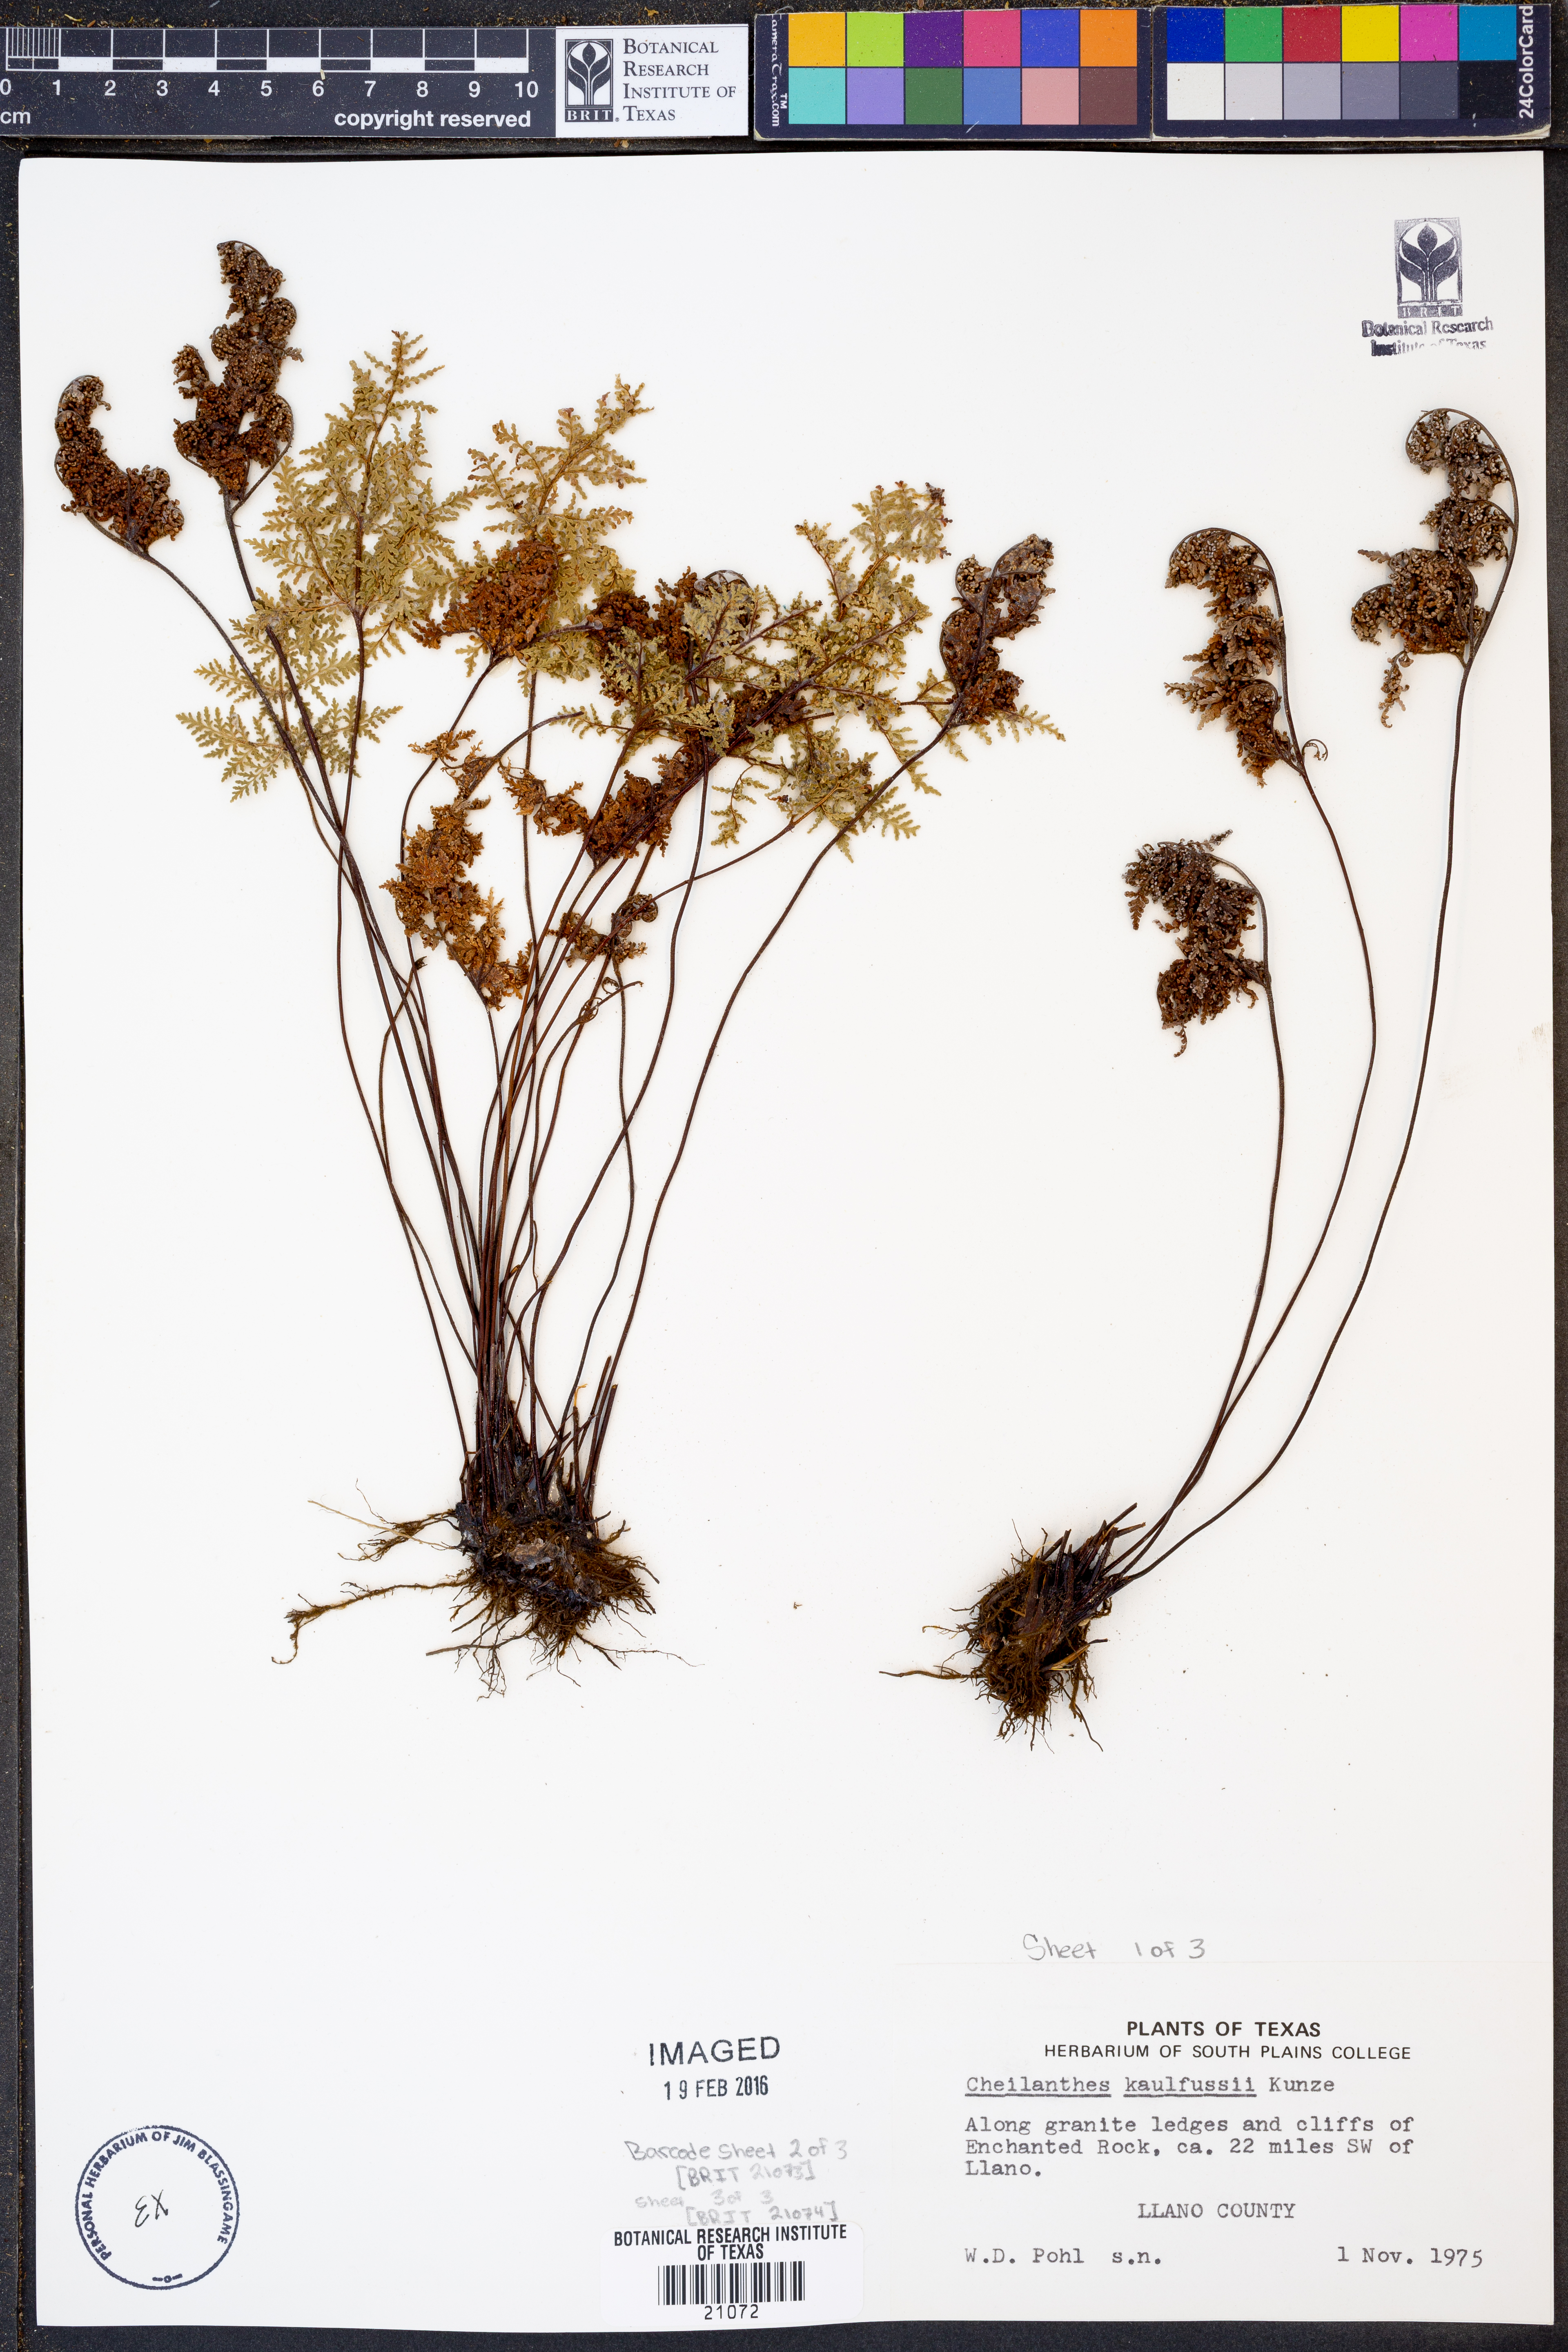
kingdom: Plantae
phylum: Tracheophyta
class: Polypodiopsida
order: Polypodiales
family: Pteridaceae
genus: Gaga
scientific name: Gaga kaulfussii
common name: Glandular lip fern
